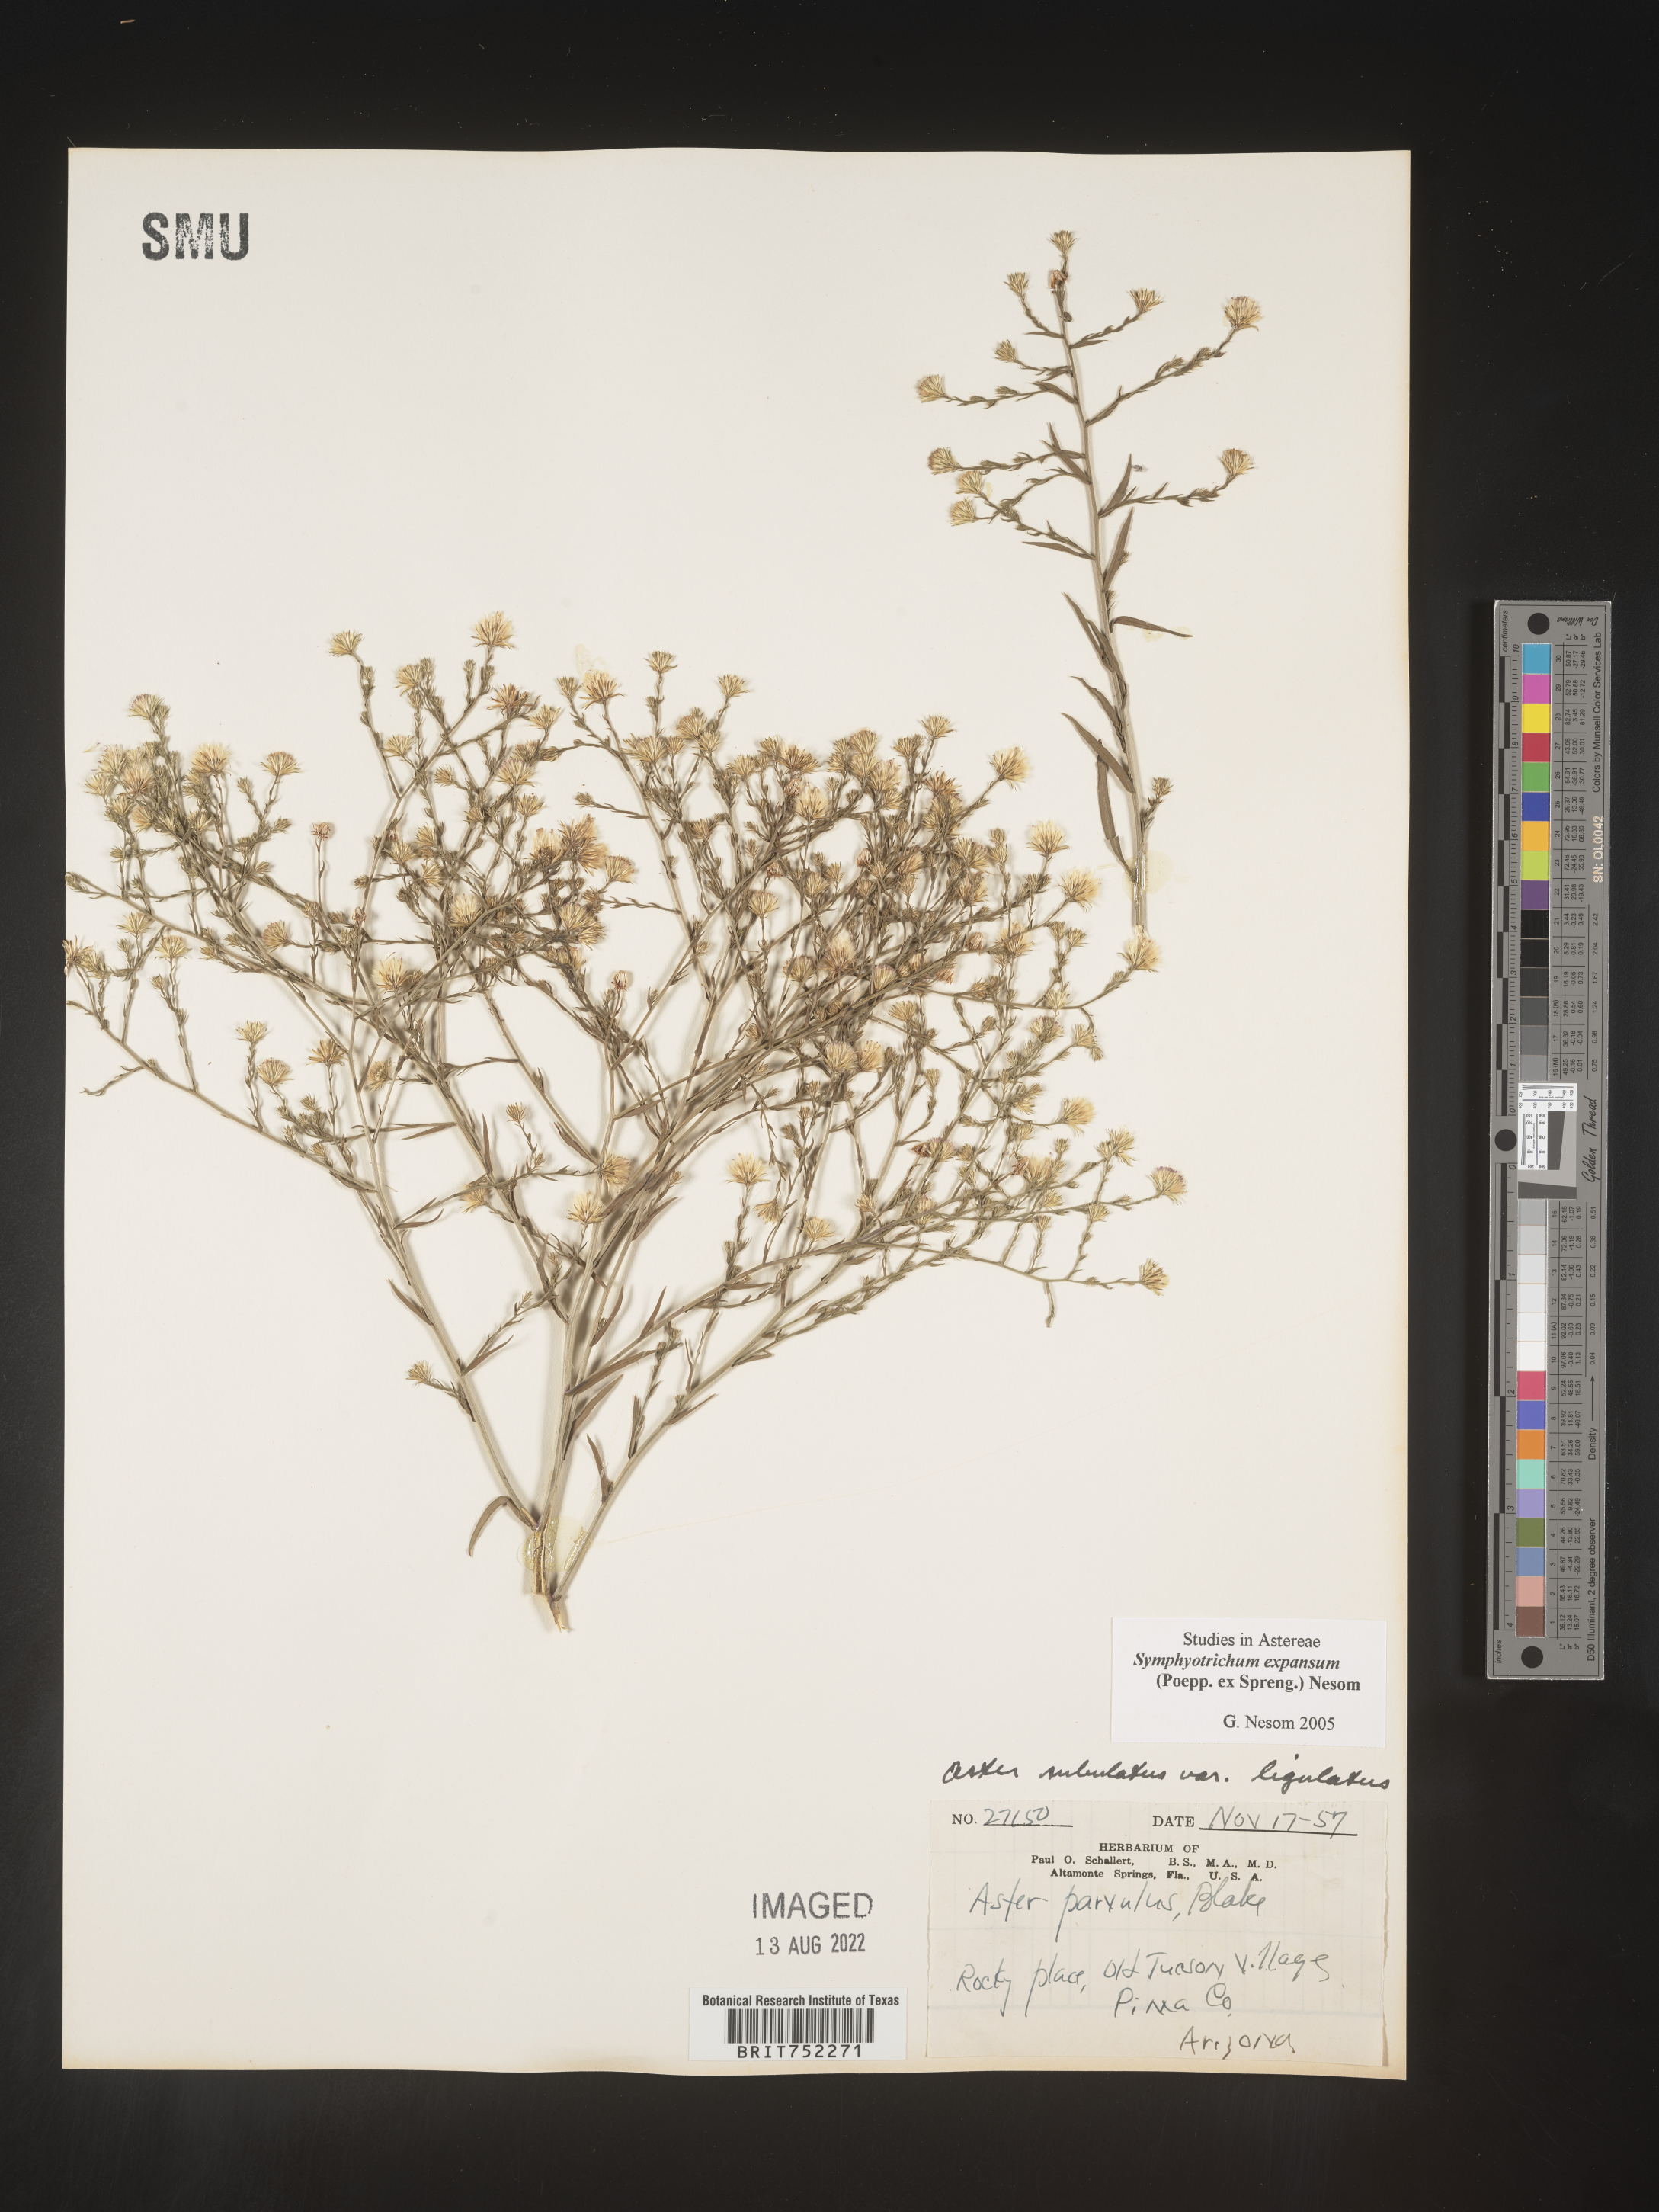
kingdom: Plantae
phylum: Tracheophyta
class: Magnoliopsida
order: Asterales
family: Asteraceae
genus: Symphyotrichum
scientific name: Symphyotrichum expansum
